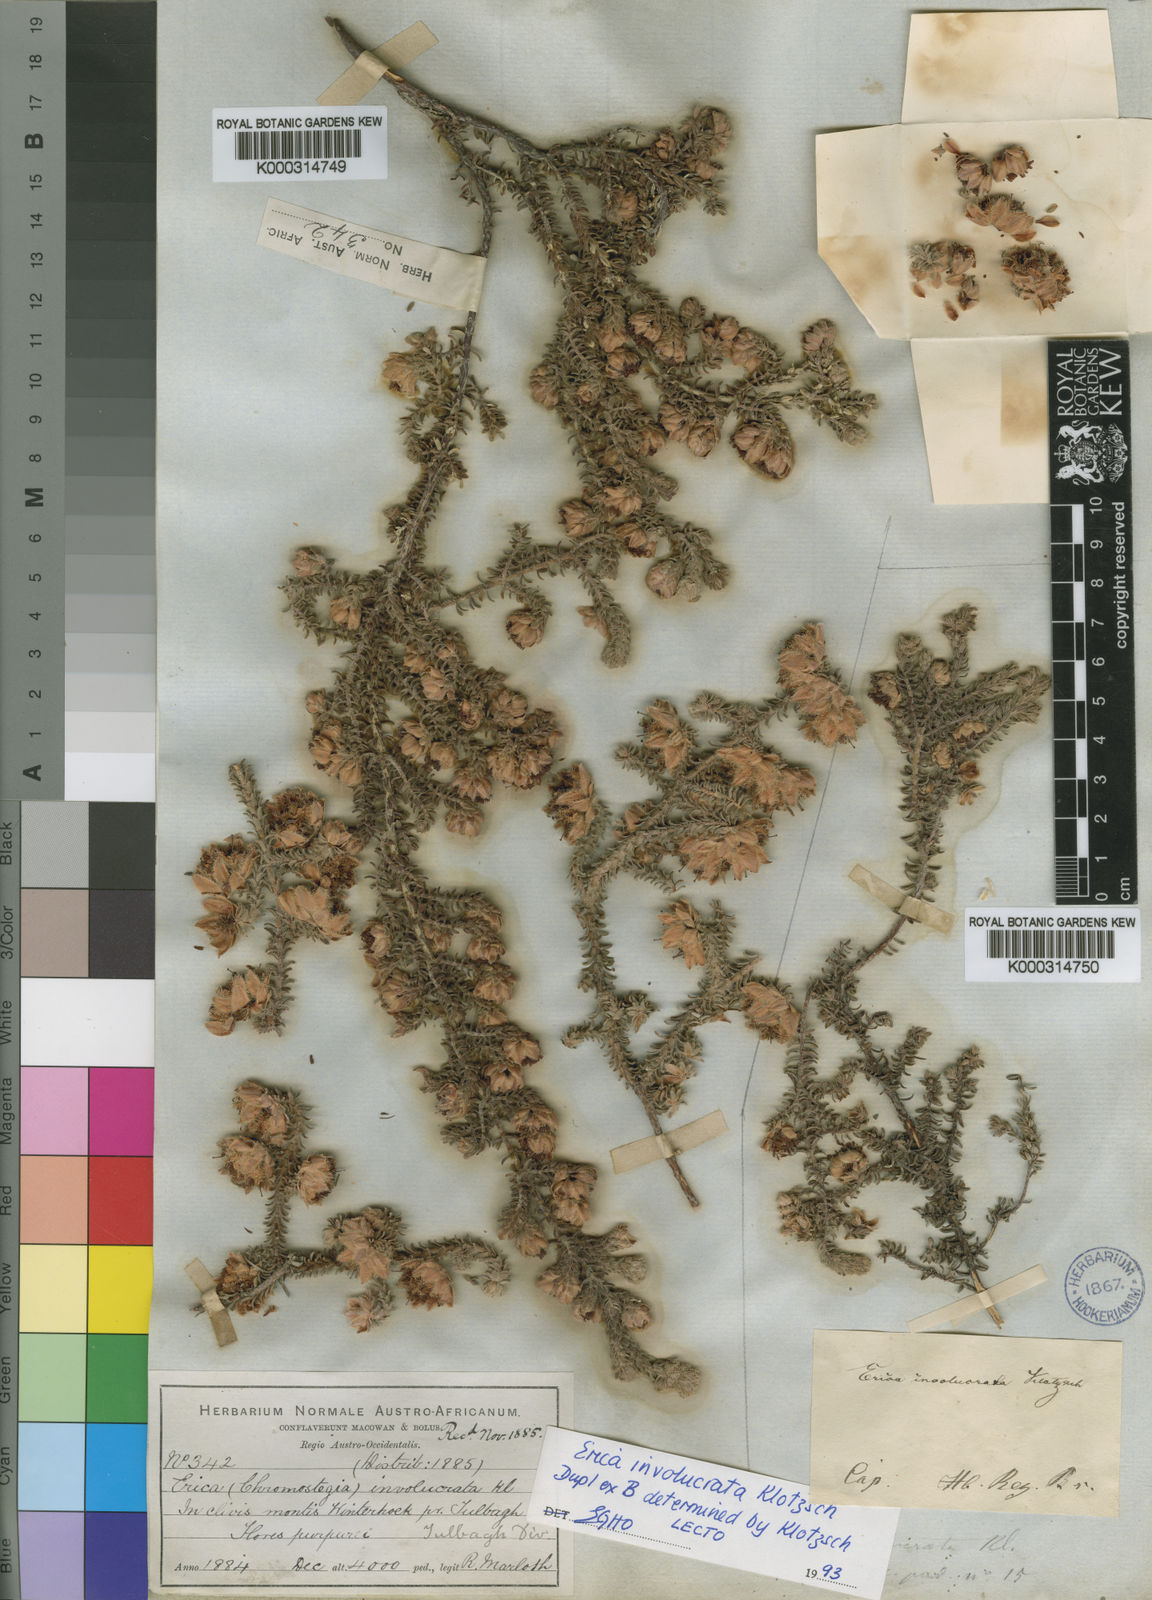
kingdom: Plantae
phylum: Tracheophyta
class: Magnoliopsida
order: Ericales
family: Ericaceae
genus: Erica
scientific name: Erica involucrata
